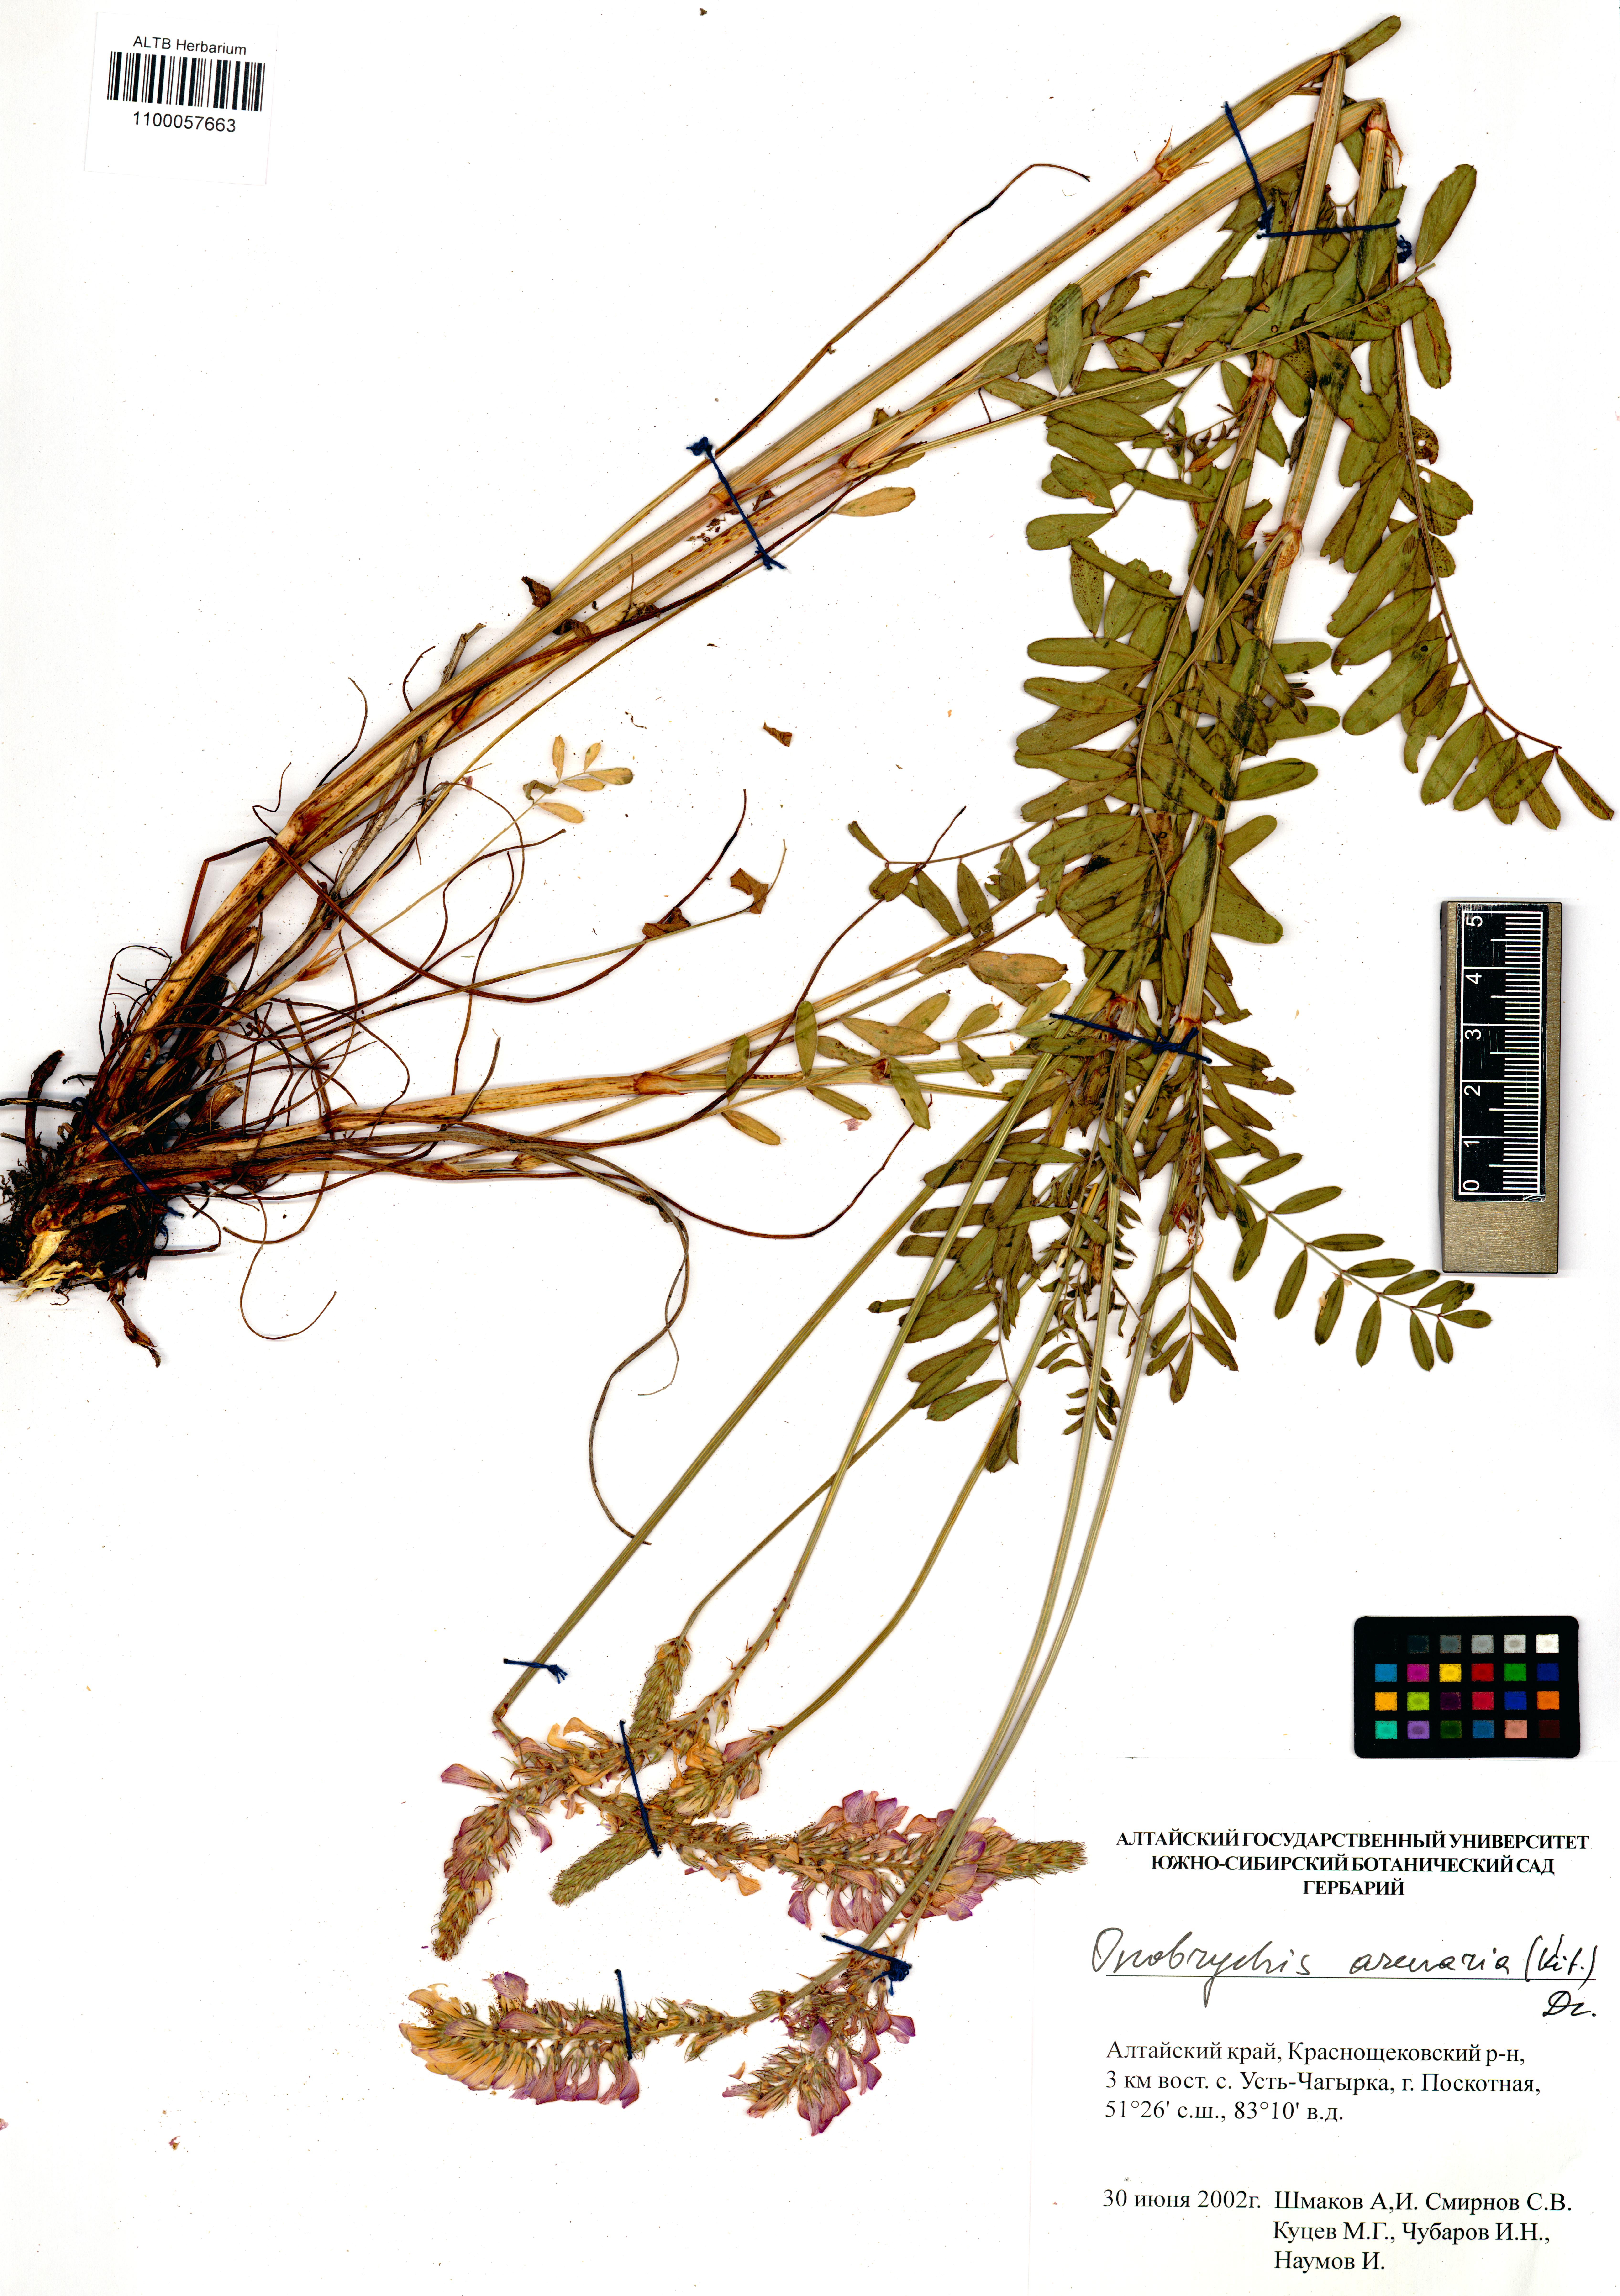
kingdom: Plantae
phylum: Tracheophyta
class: Magnoliopsida
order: Fabales
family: Fabaceae
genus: Onobrychis
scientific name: Onobrychis arenaria
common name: Sand esparcet
